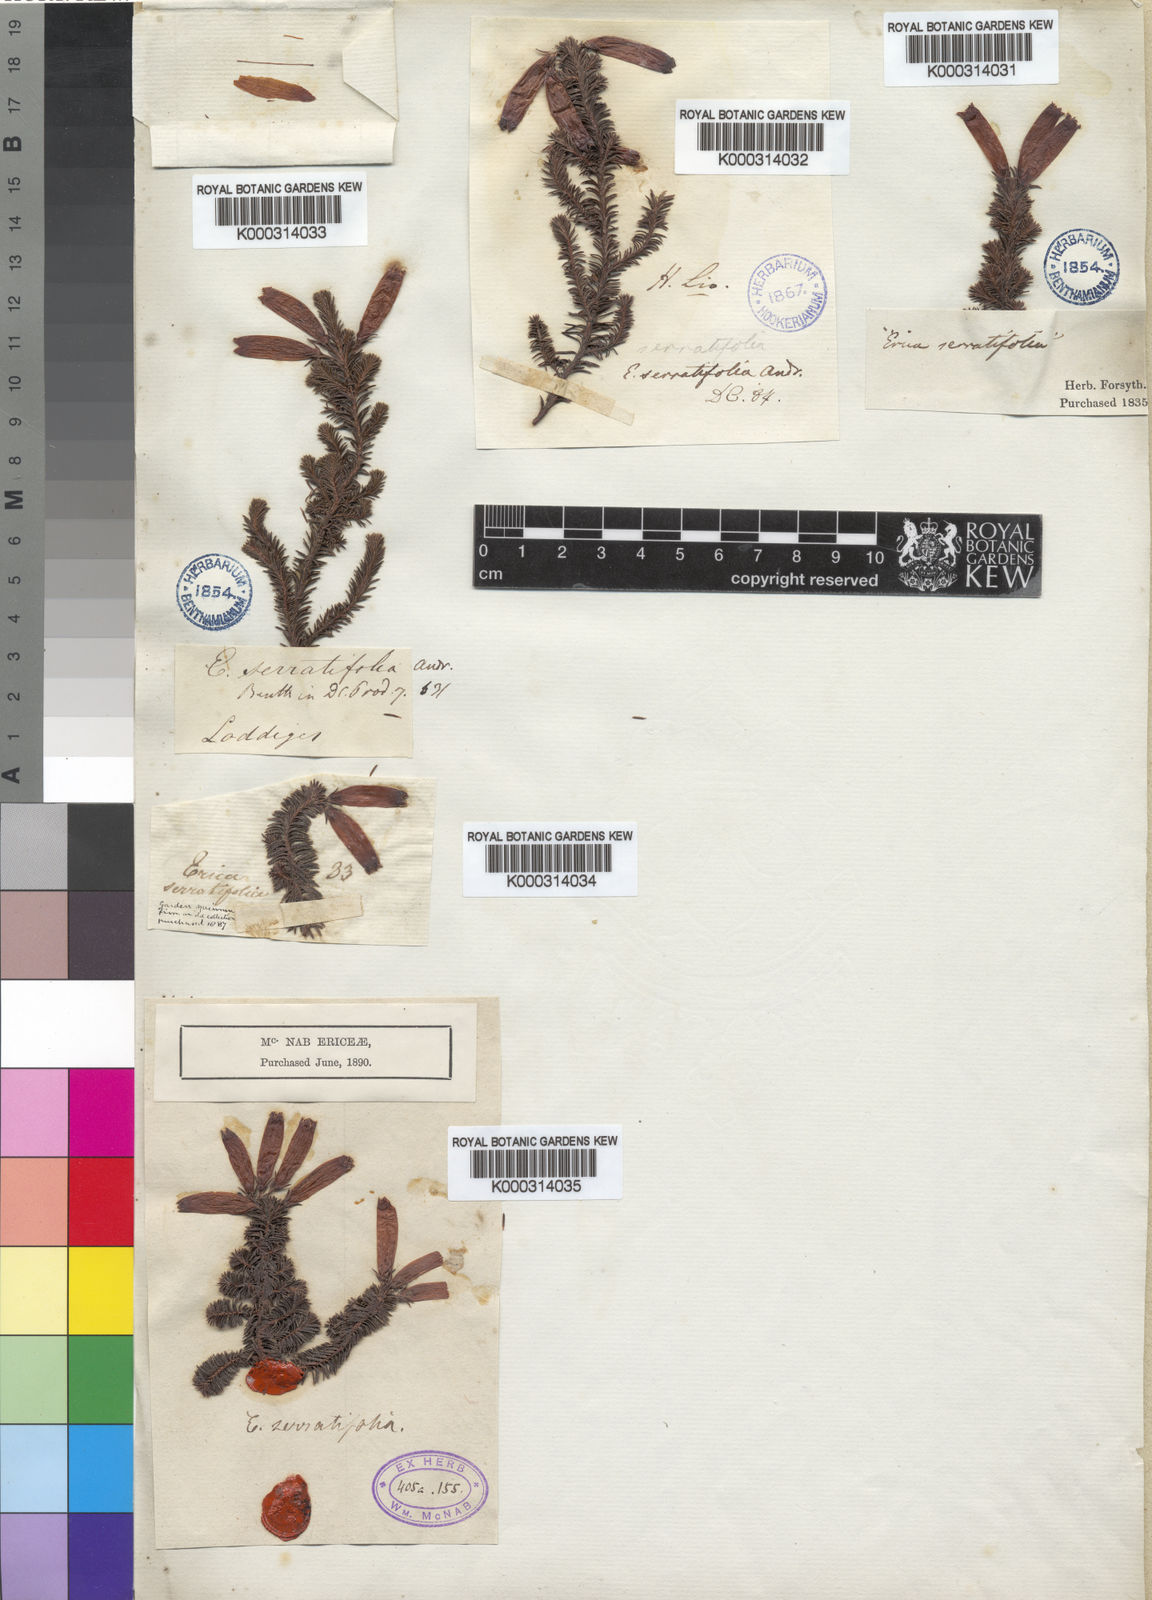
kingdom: Plantae
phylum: Tracheophyta
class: Magnoliopsida
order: Ericales
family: Ericaceae
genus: Erica
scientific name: Erica serrata
